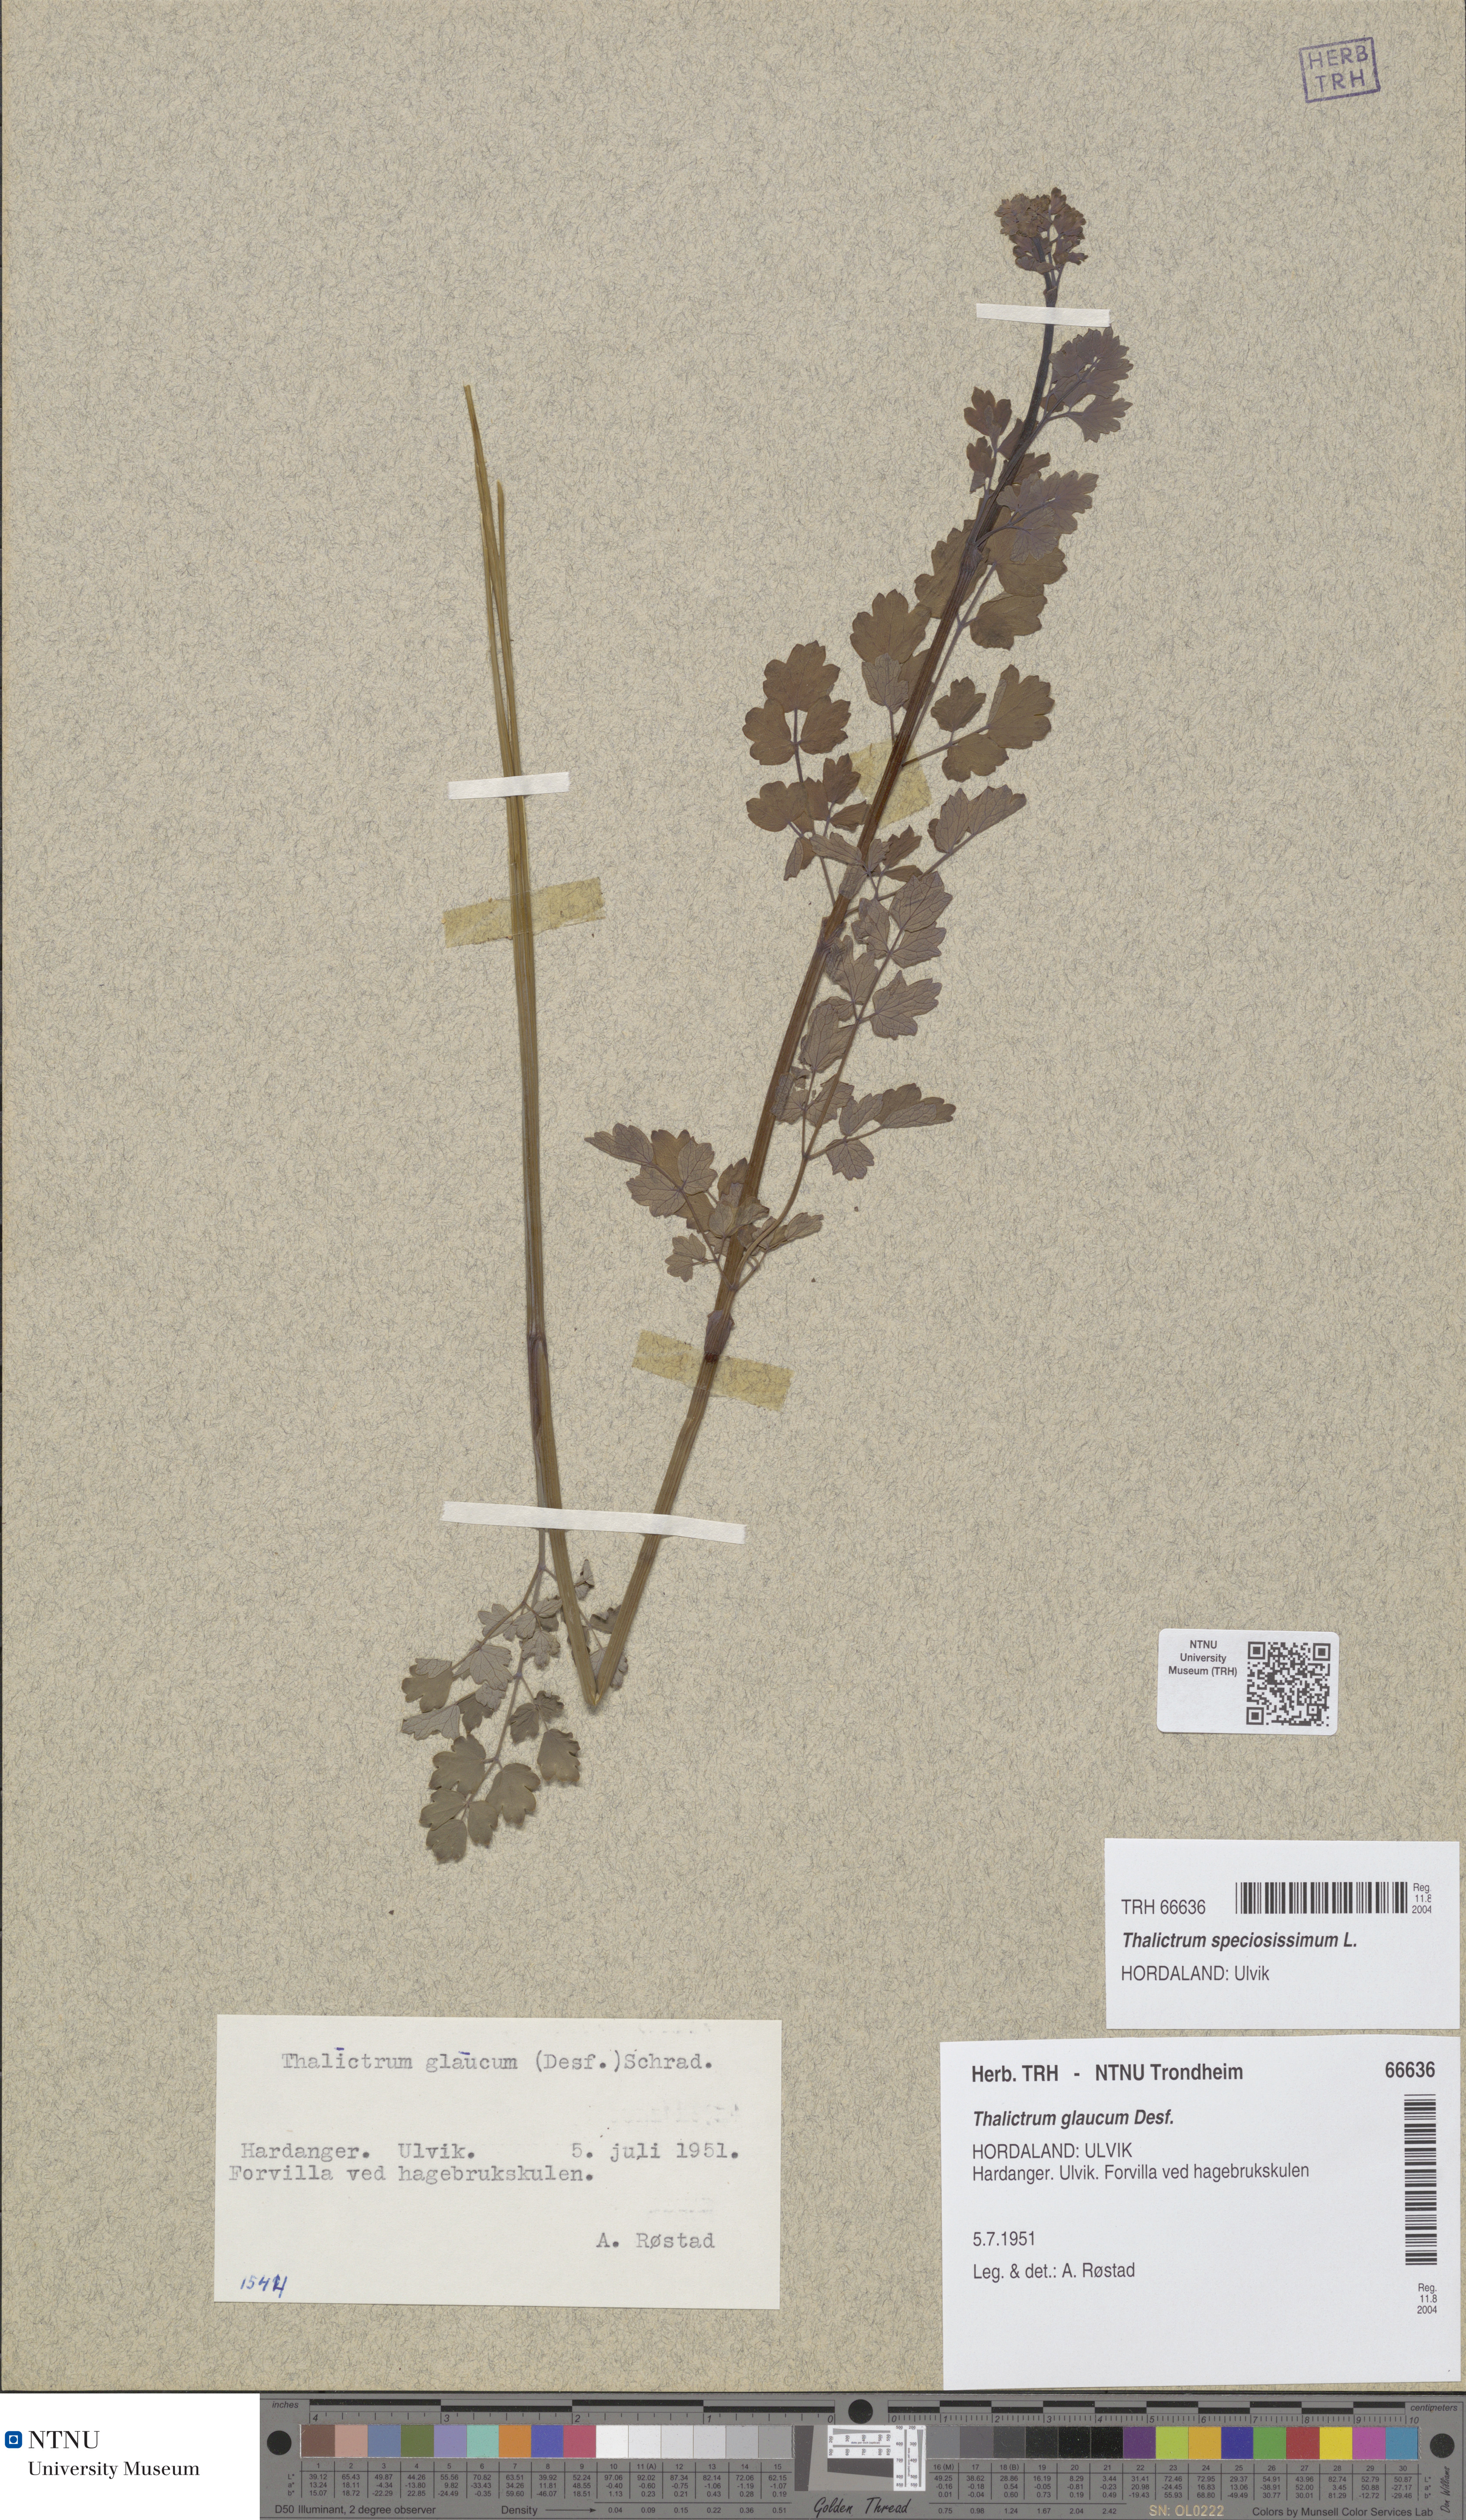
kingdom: Plantae
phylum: Tracheophyta
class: Magnoliopsida
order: Ranunculales
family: Ranunculaceae
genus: Thalictrum
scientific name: Thalictrum speciosissimum
